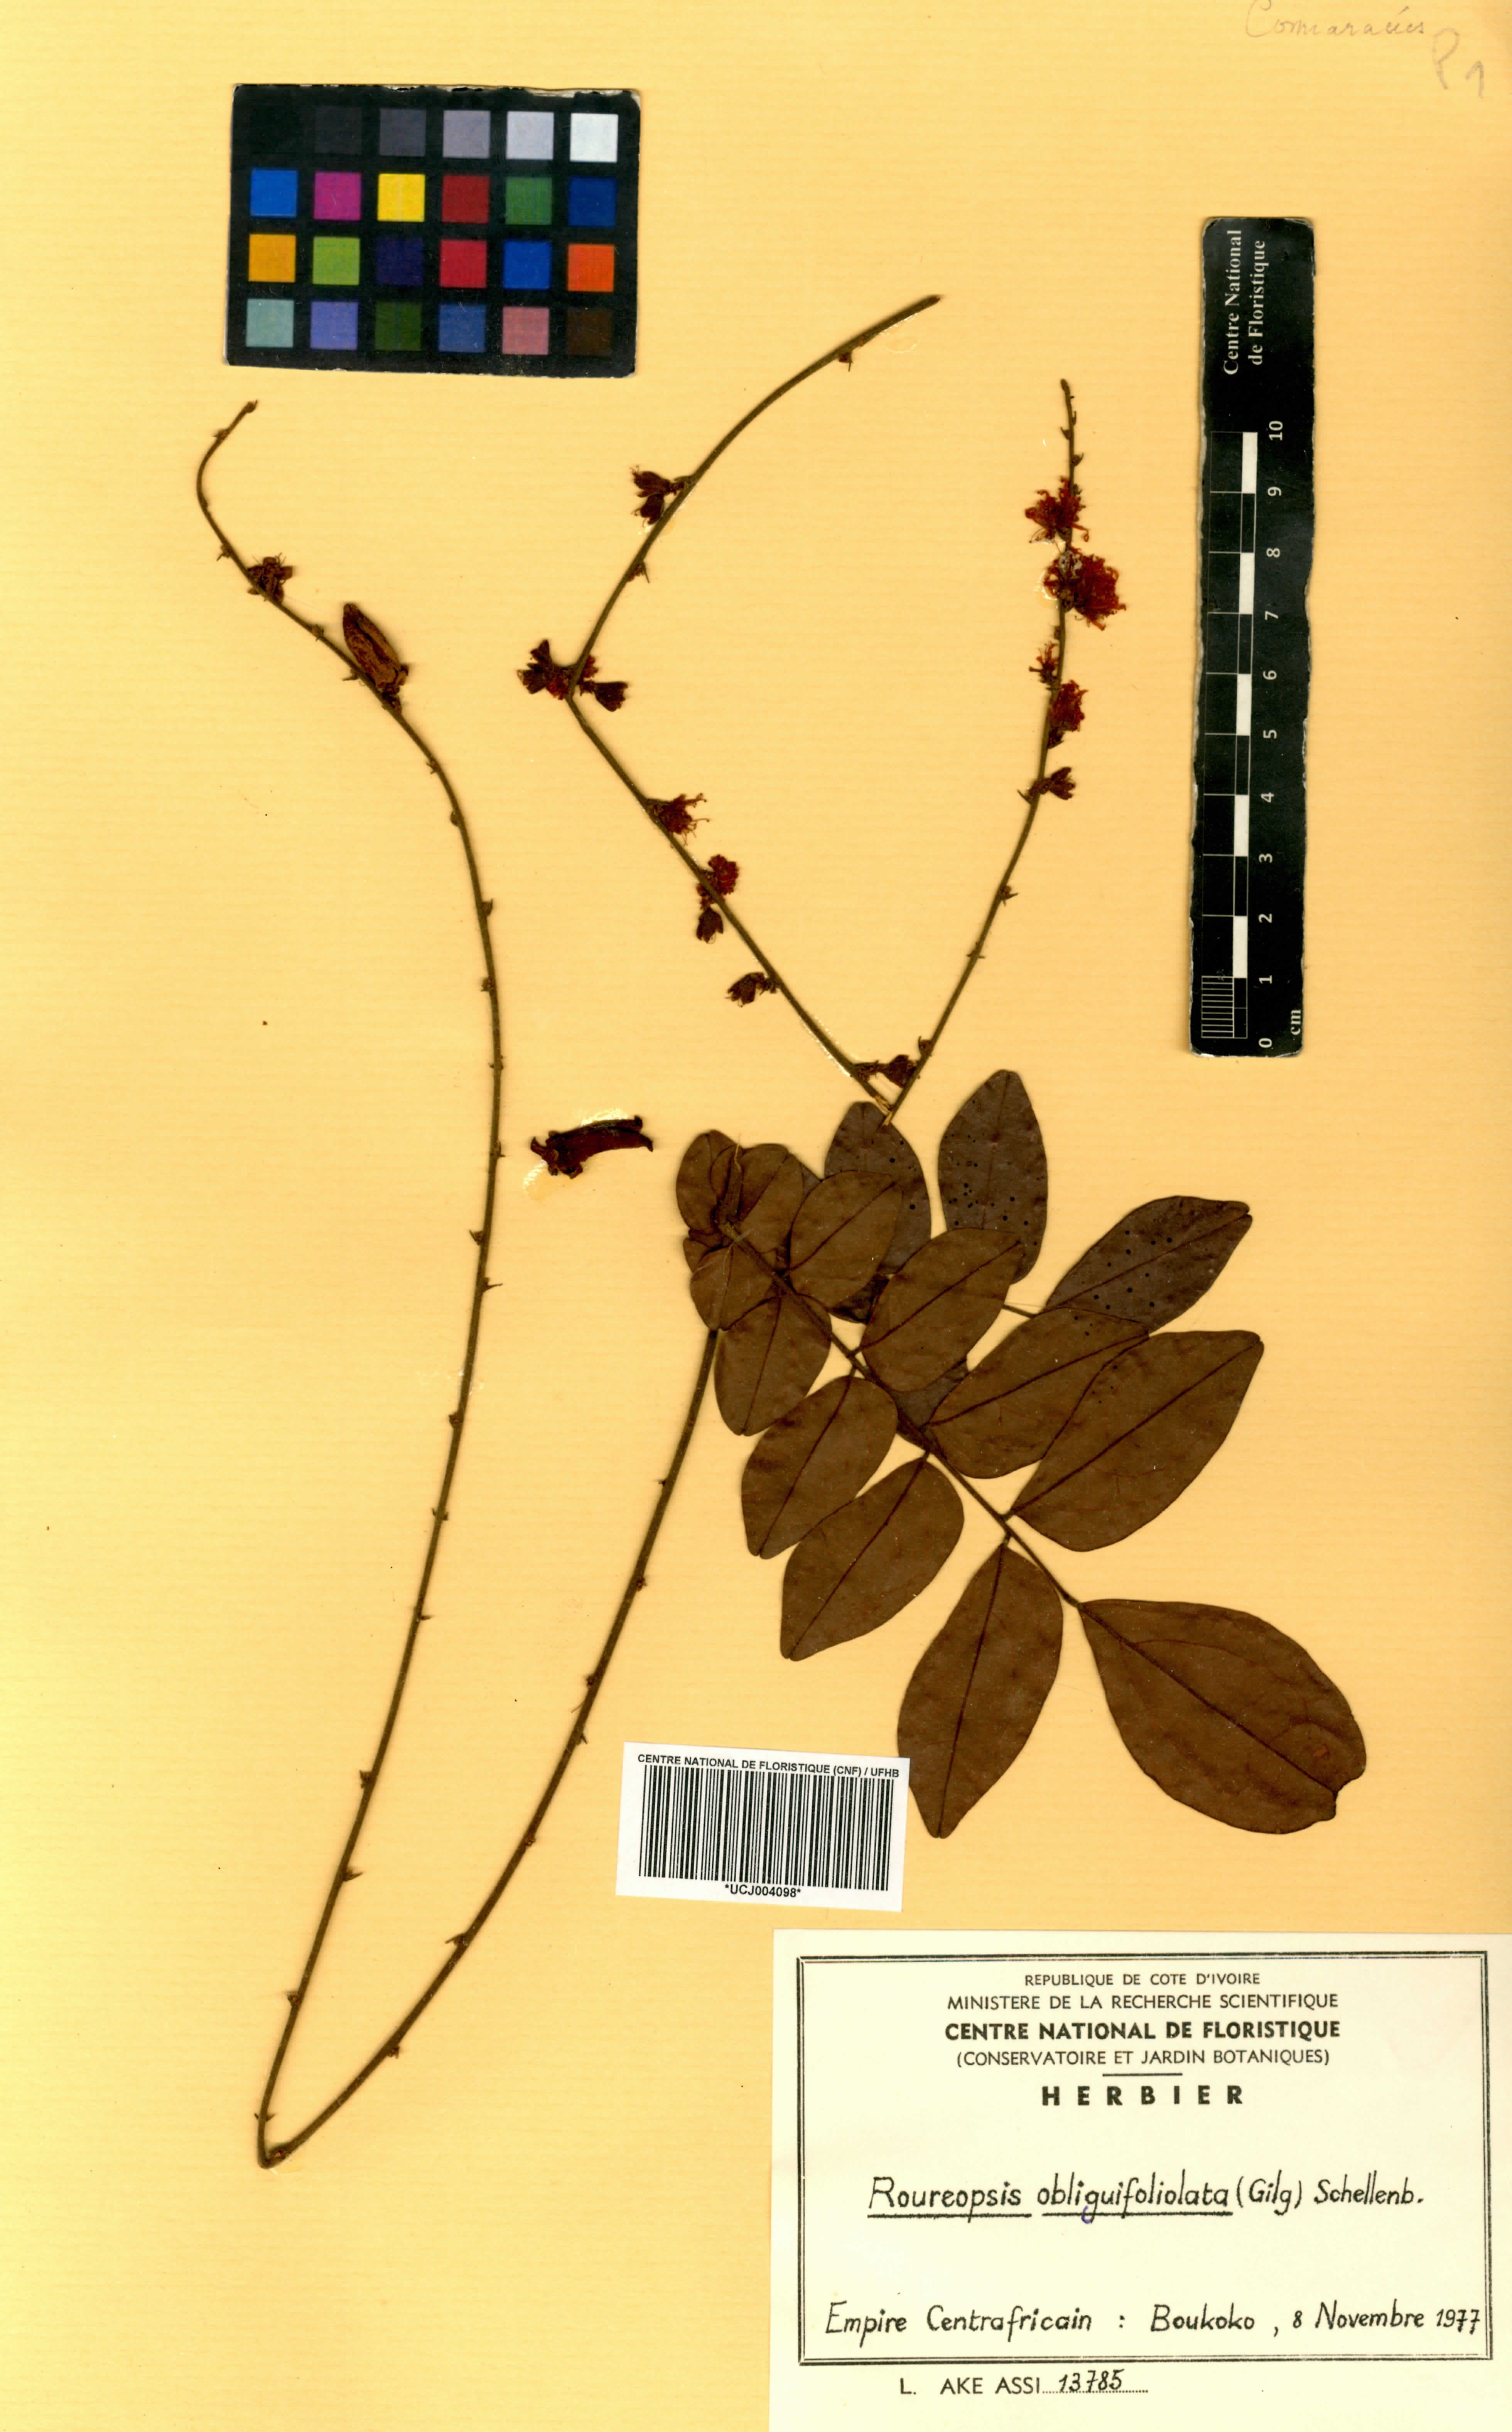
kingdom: Plantae
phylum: Tracheophyta
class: Magnoliopsida
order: Oxalidales
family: Connaraceae
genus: Rourea
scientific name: Rourea minor
